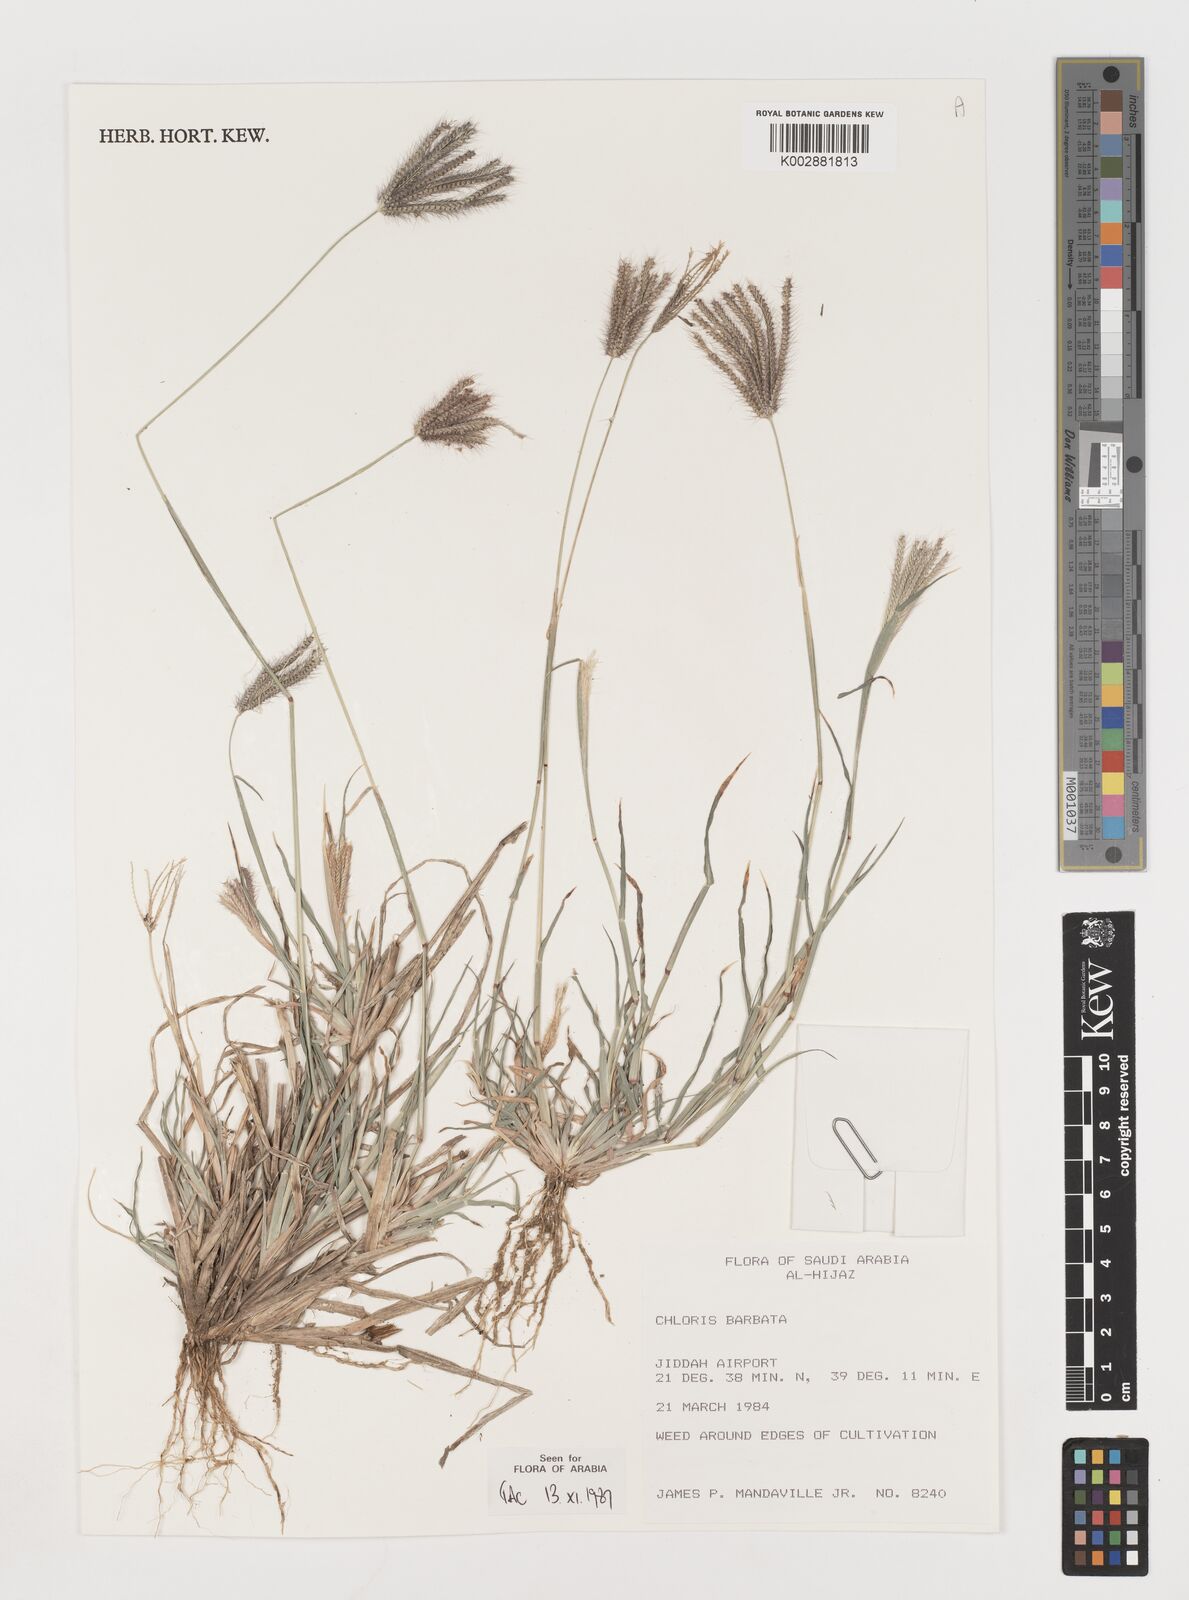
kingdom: Plantae
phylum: Tracheophyta
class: Liliopsida
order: Poales
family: Poaceae
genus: Chloris
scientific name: Chloris barbata
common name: Swollen fingergrass
